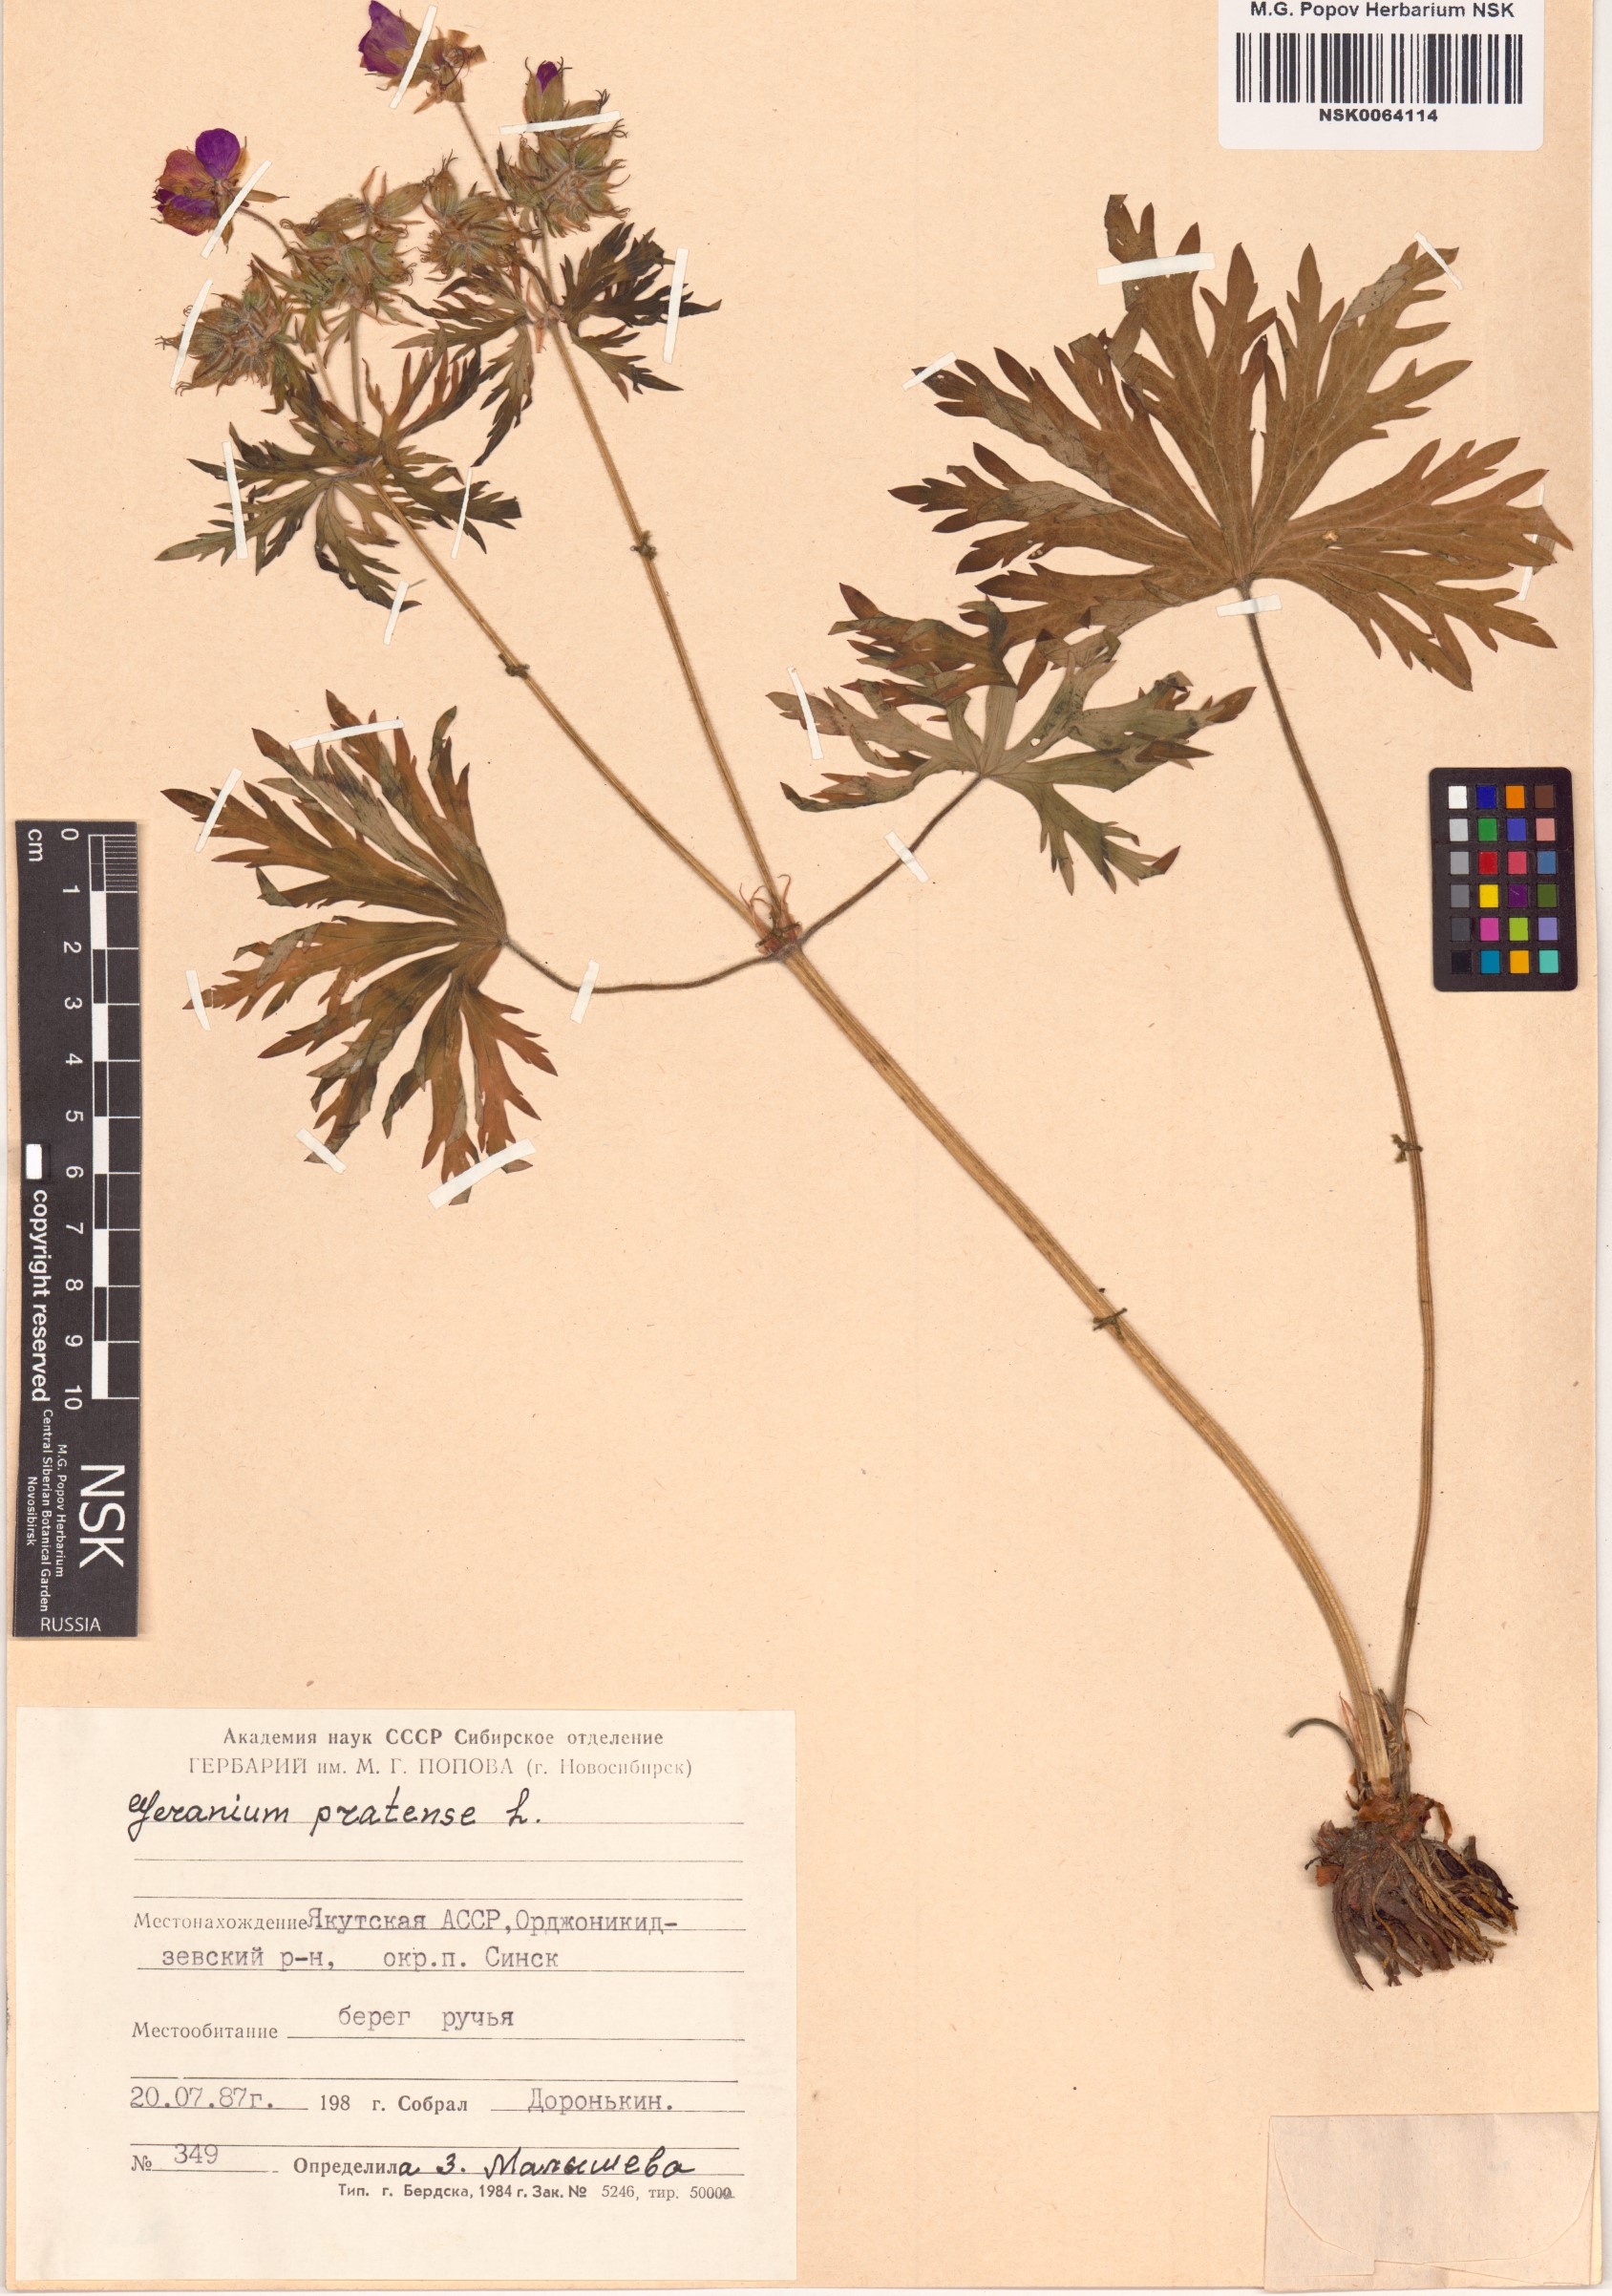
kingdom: Plantae
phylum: Tracheophyta
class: Magnoliopsida
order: Geraniales
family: Geraniaceae
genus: Geranium
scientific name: Geranium pratense
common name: Meadow crane's-bill
